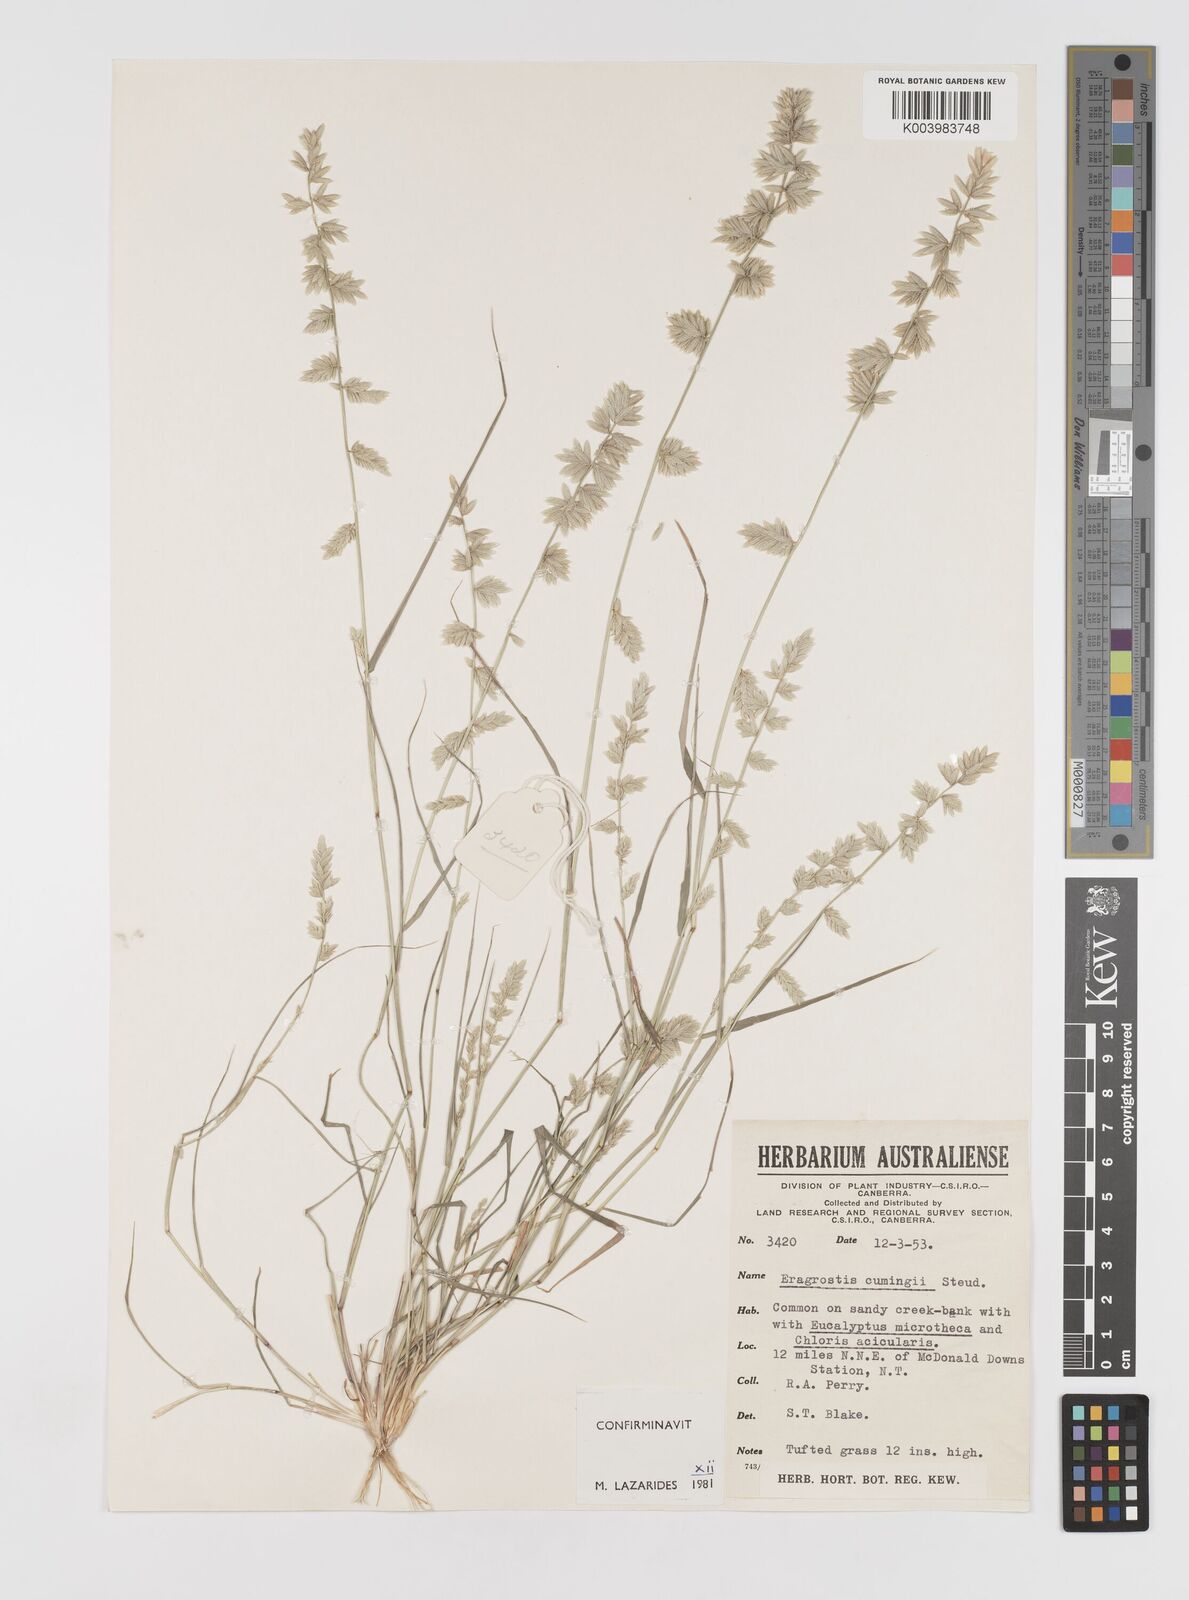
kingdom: Plantae
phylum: Tracheophyta
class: Liliopsida
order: Poales
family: Poaceae
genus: Eragrostis
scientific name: Eragrostis cumingii
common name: Cuming's lovegrass
